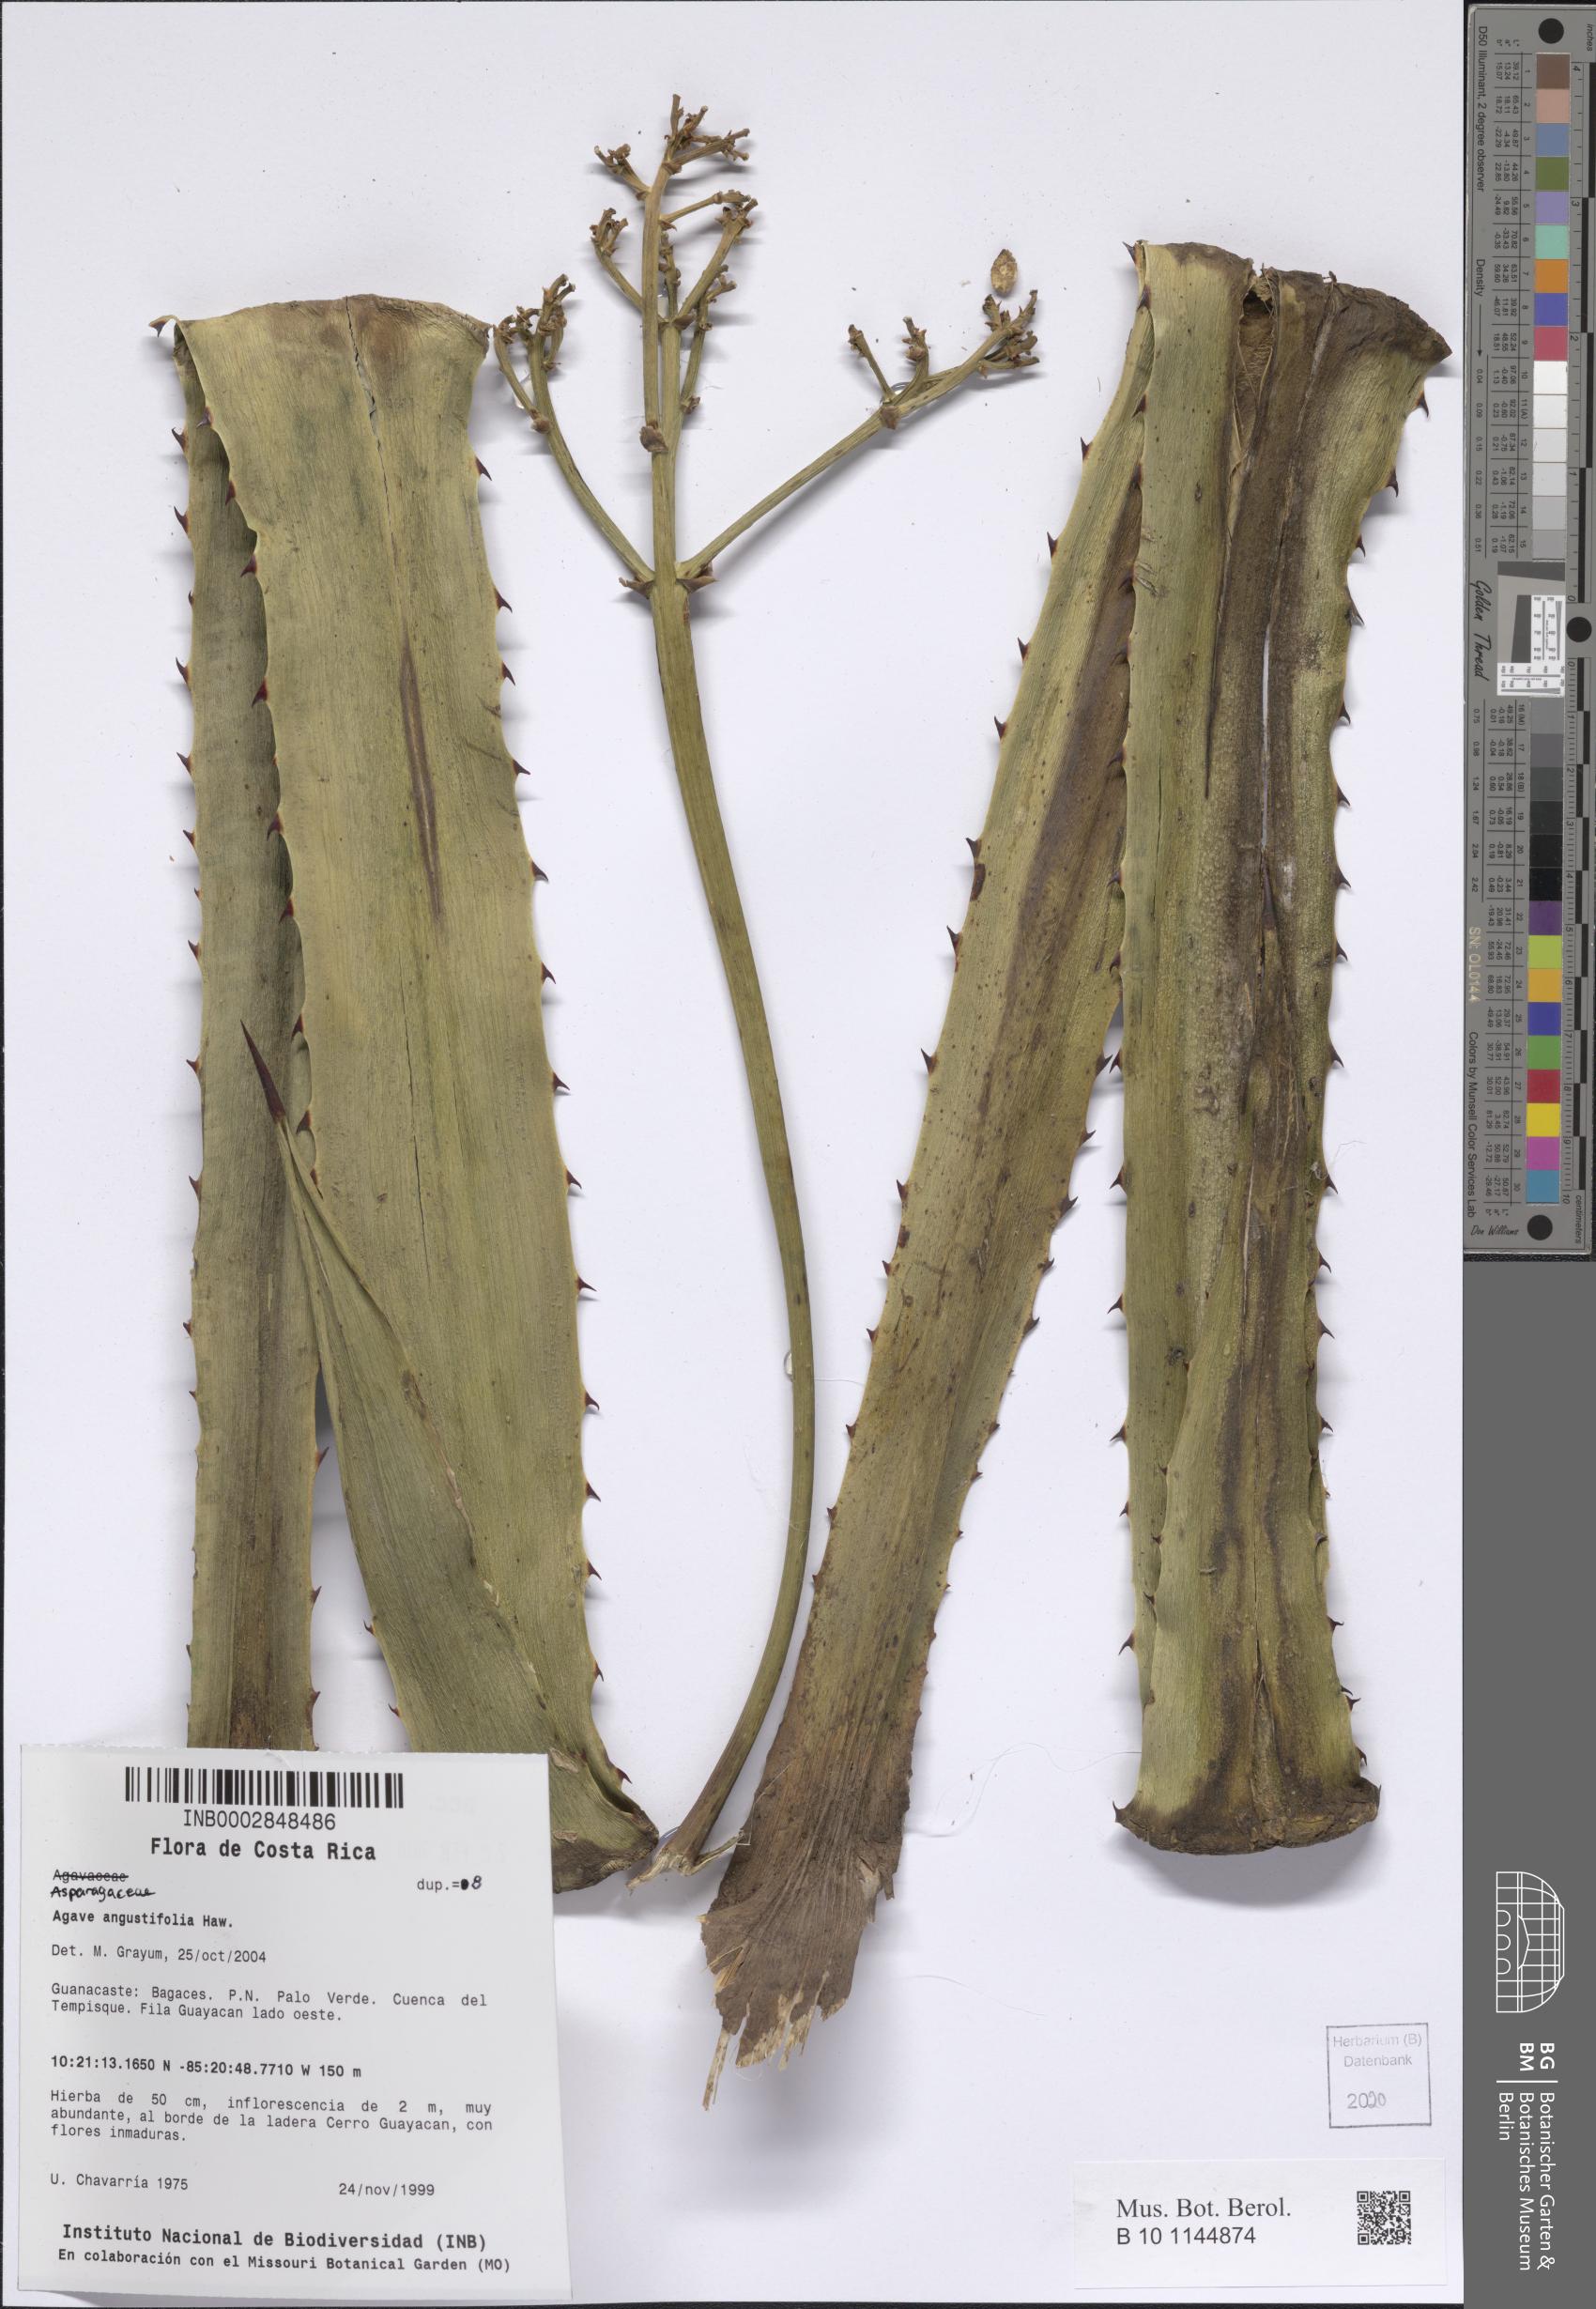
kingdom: Plantae
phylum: Tracheophyta
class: Liliopsida
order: Asparagales
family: Asparagaceae
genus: Agave
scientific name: Agave angustifolia
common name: Mescal agave
